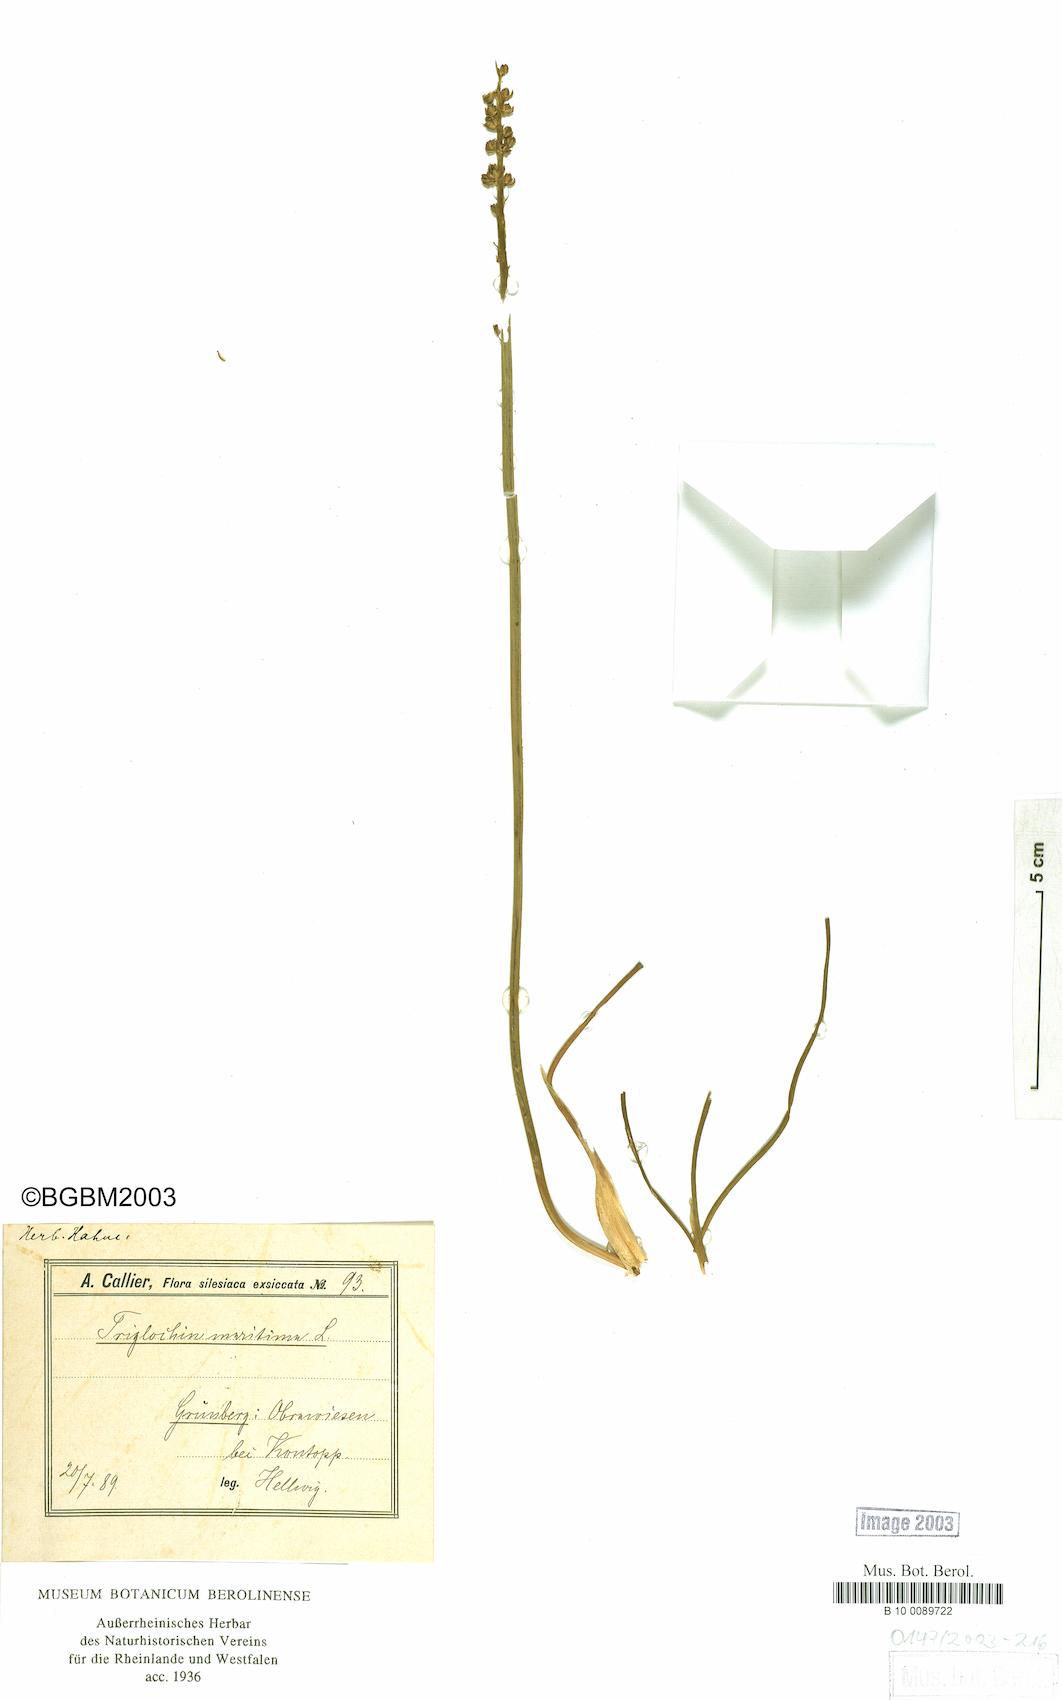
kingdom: Plantae
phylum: Tracheophyta
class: Liliopsida
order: Alismatales
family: Juncaginaceae
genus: Triglochin
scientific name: Triglochin maritima
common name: Sea arrowgrass
